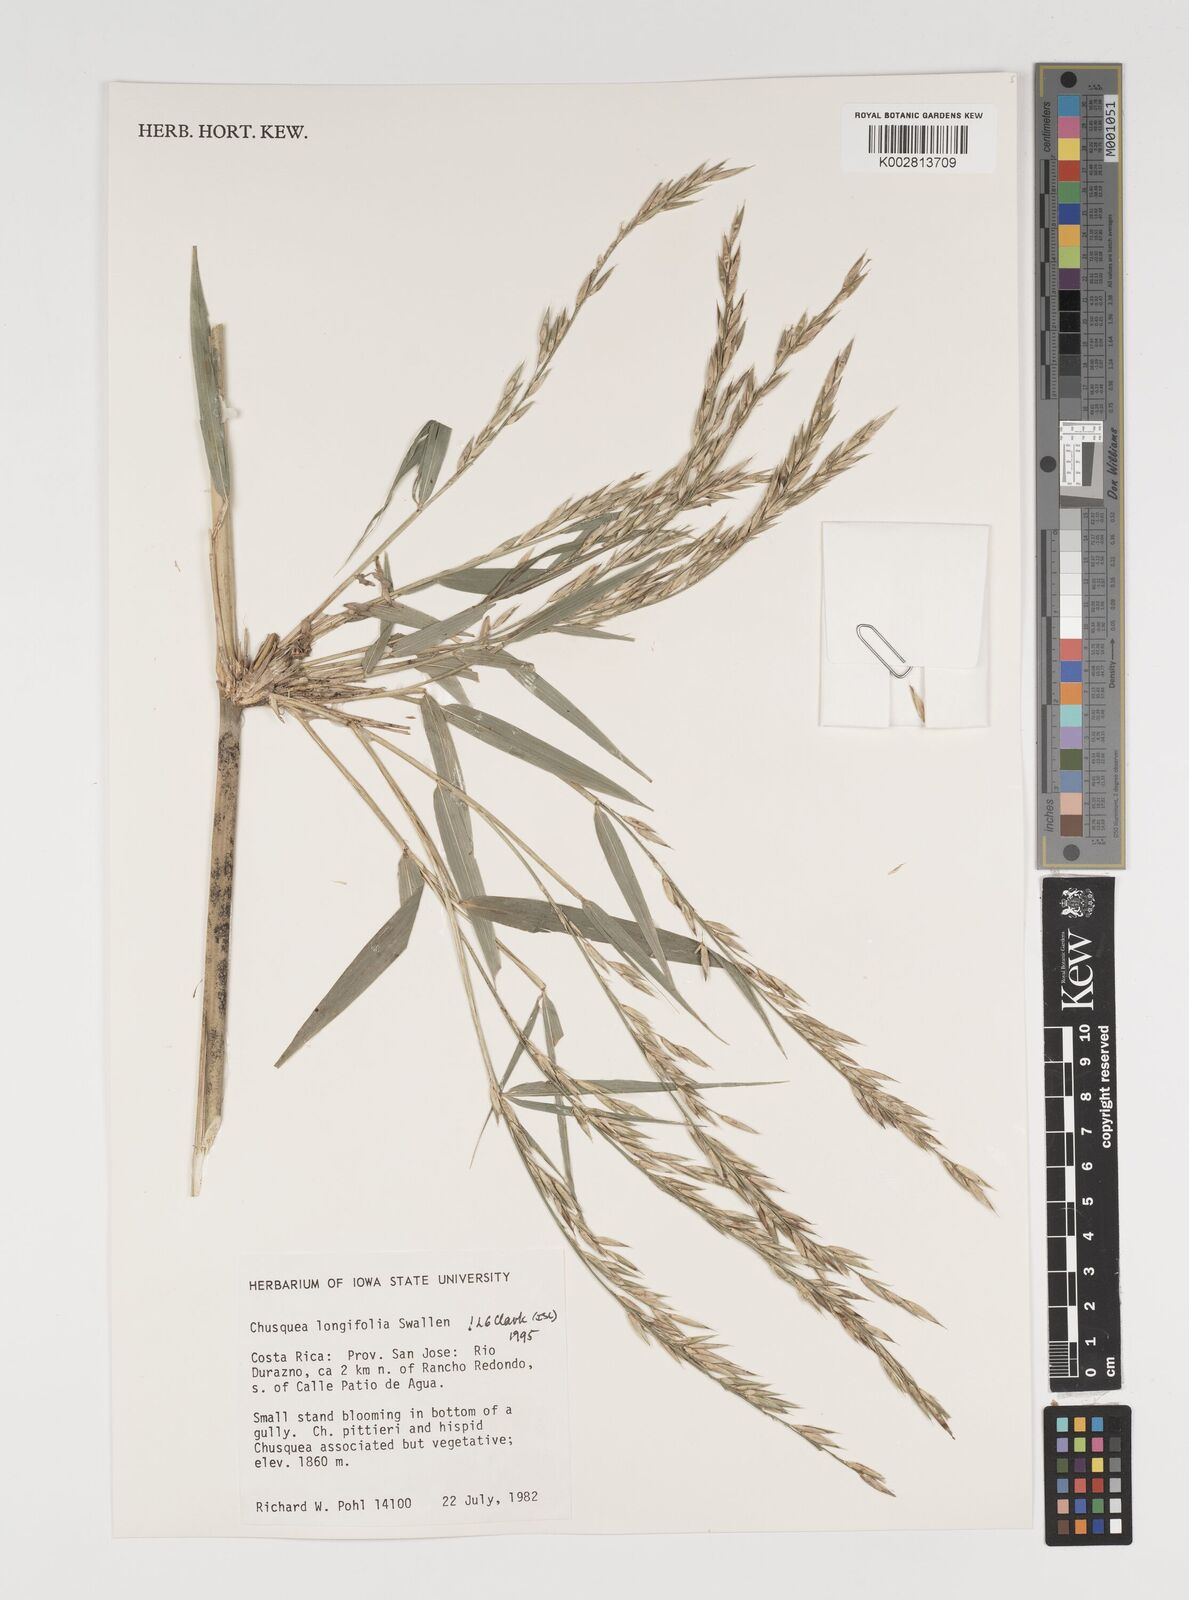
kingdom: Plantae
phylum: Tracheophyta
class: Liliopsida
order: Poales
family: Poaceae
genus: Chusquea
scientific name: Chusquea longifolia
